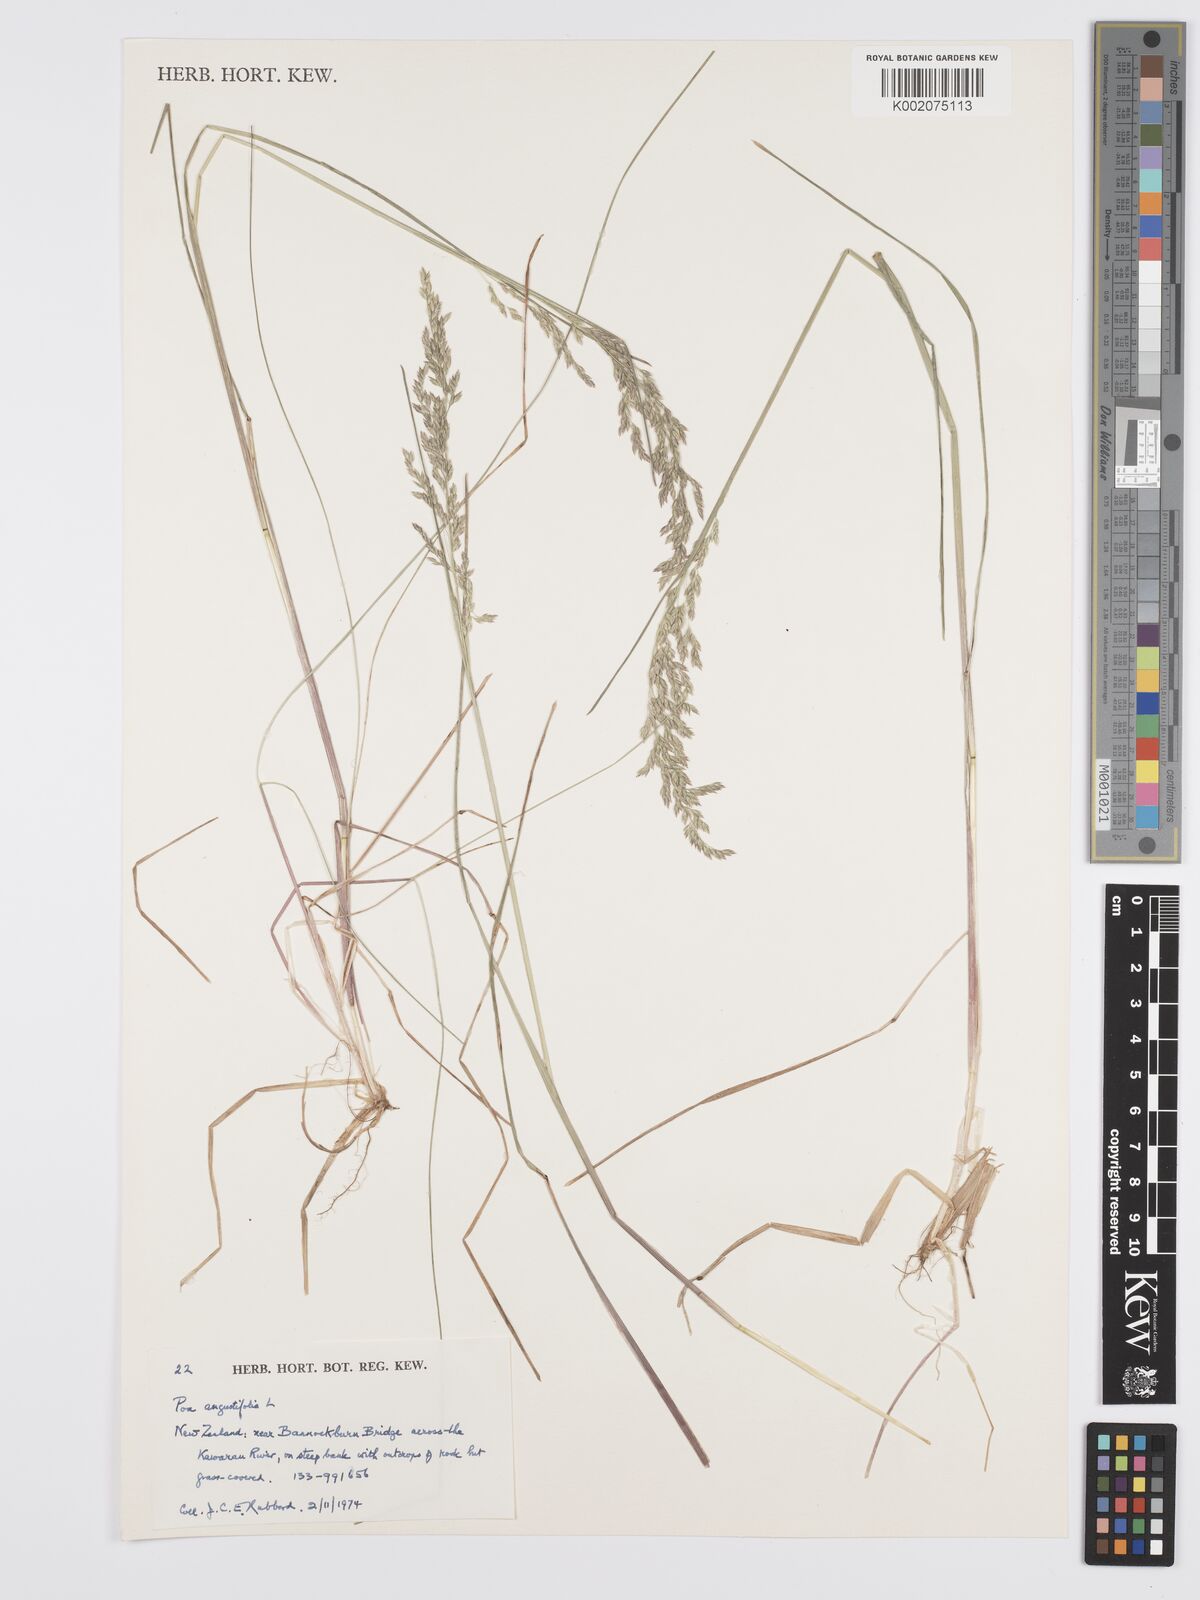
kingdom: Plantae
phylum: Tracheophyta
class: Liliopsida
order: Poales
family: Poaceae
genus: Poa
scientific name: Poa angustifolia
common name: Narrow-leaved meadow-grass
